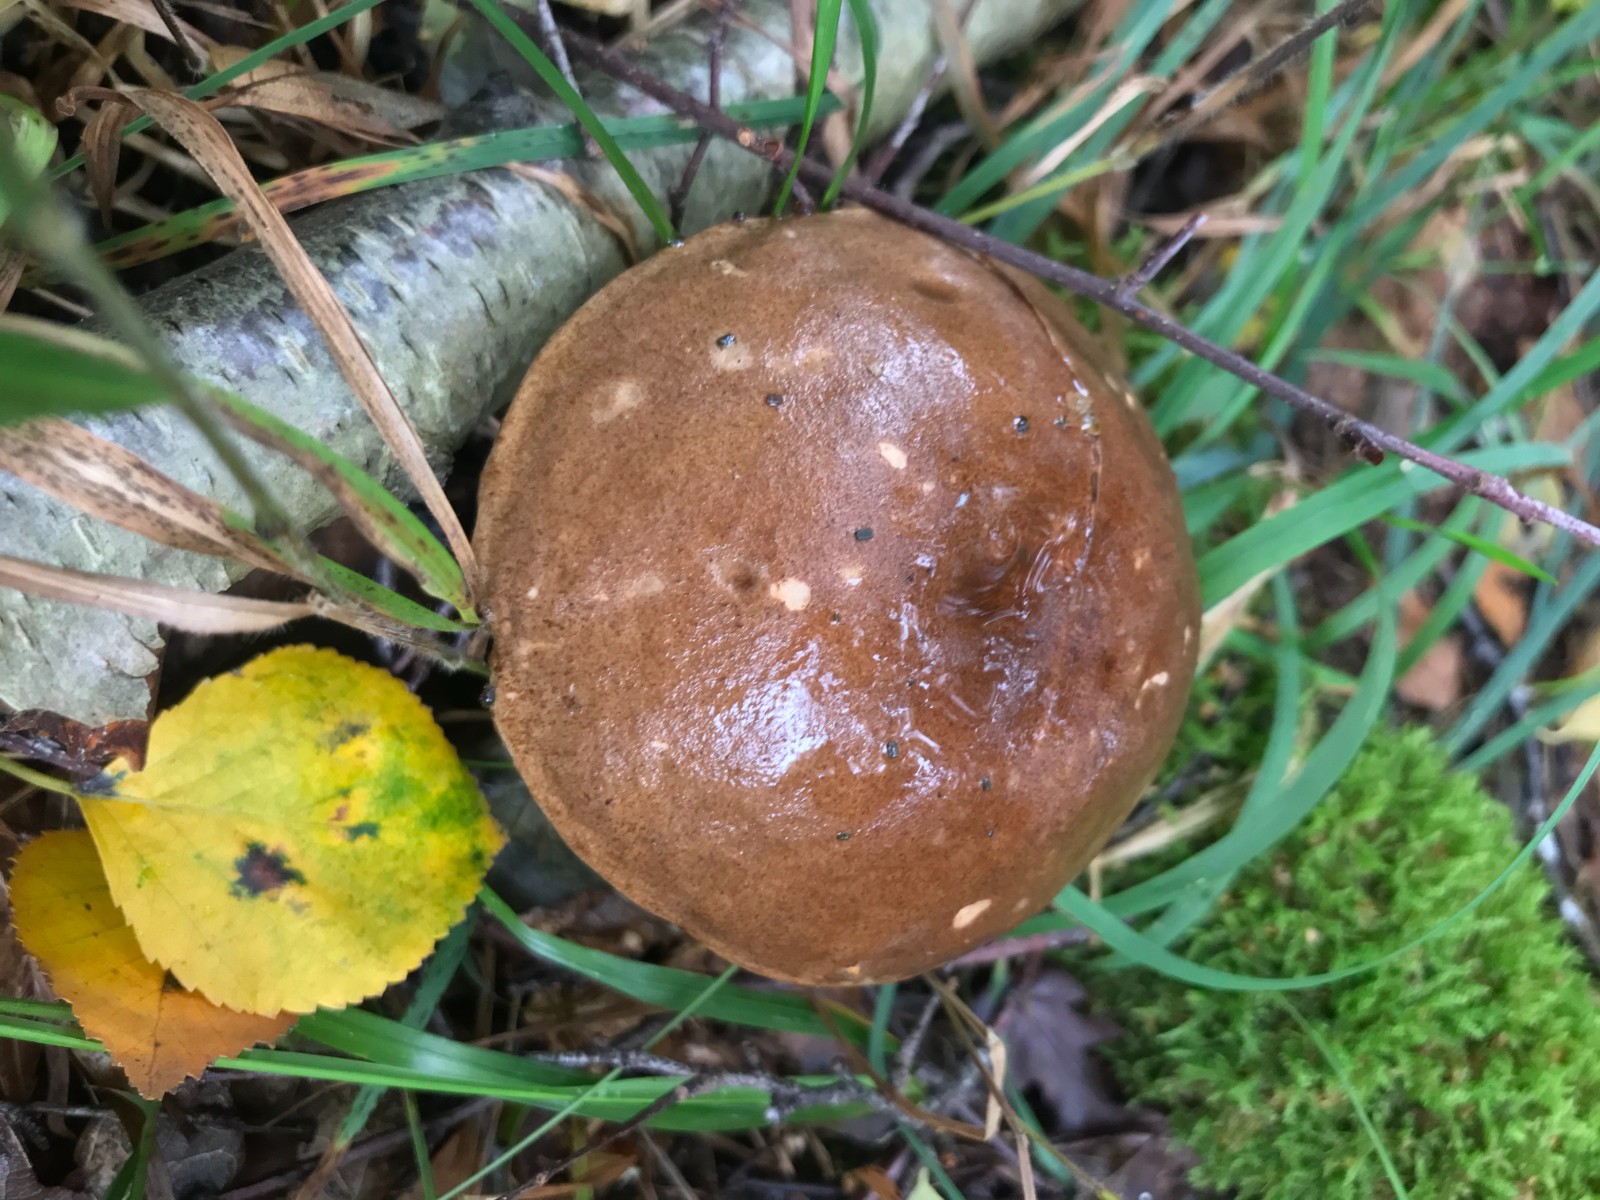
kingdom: Fungi
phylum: Basidiomycota
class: Agaricomycetes
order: Boletales
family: Boletaceae
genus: Leccinum
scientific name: Leccinum scabrum
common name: brun skælrørhat
